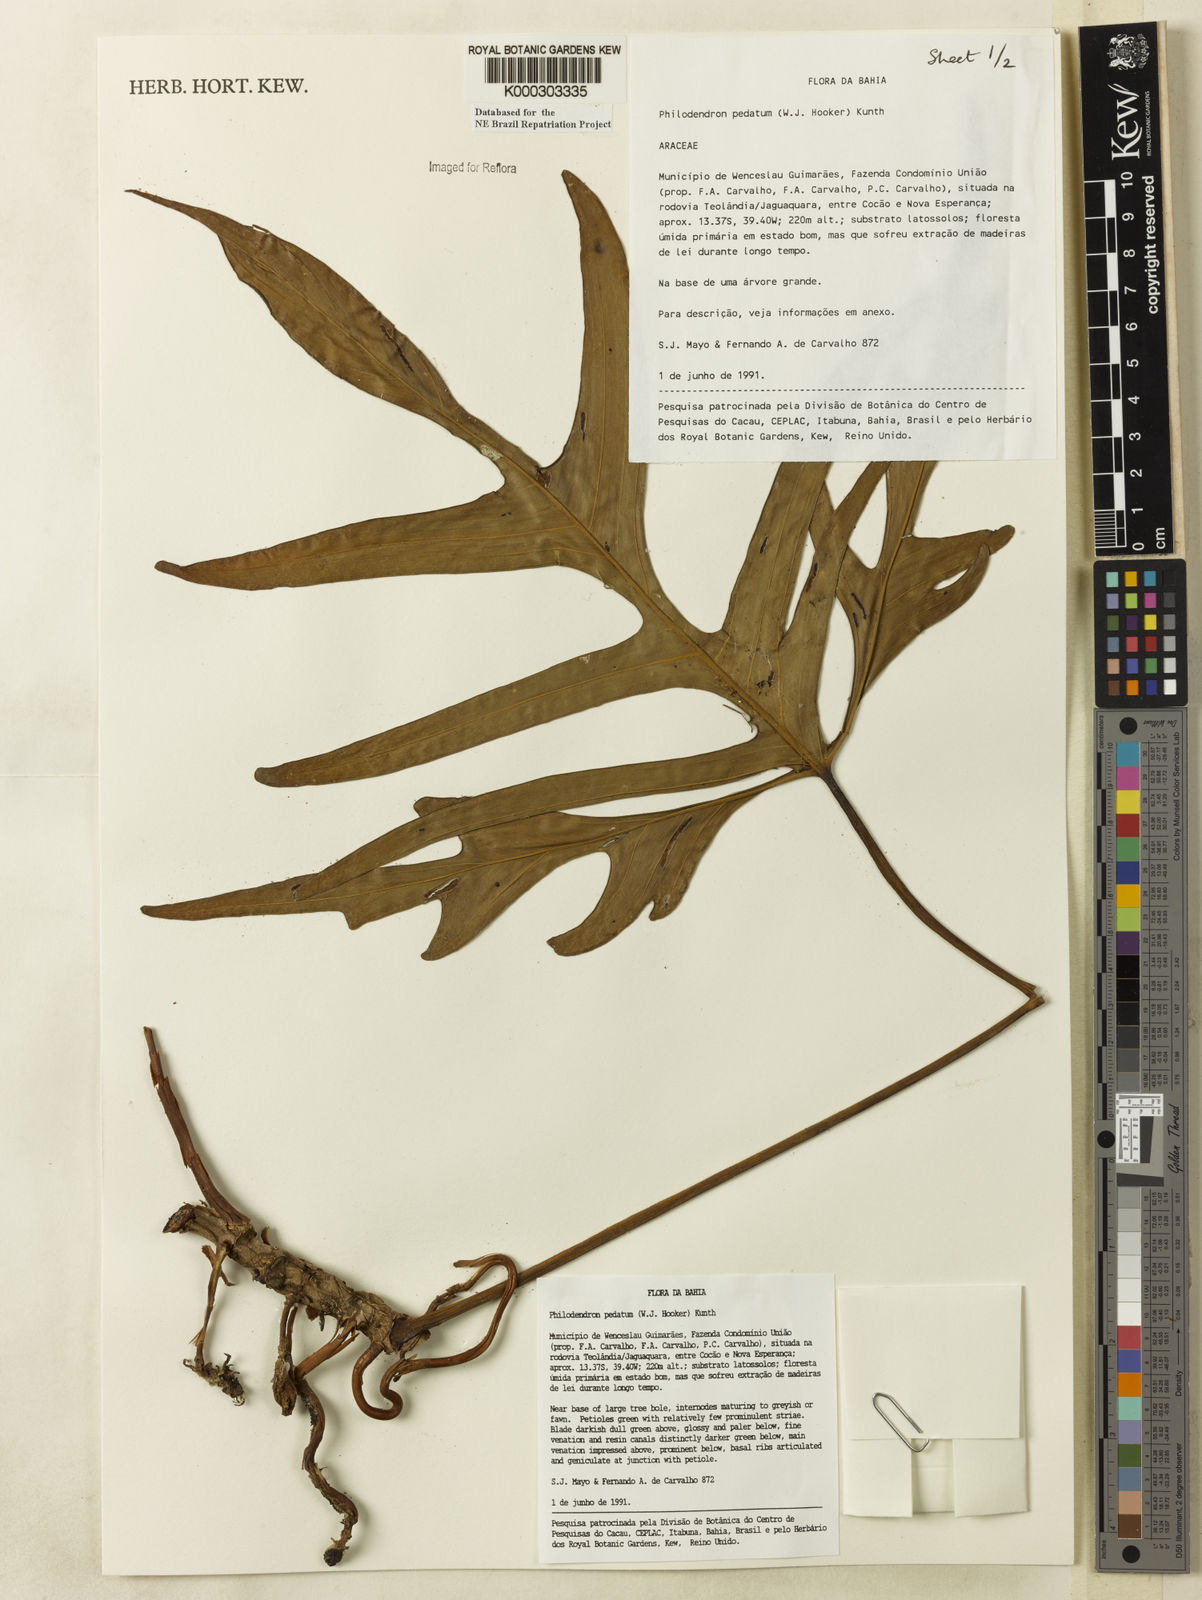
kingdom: Plantae
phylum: Tracheophyta
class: Liliopsida
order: Alismatales
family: Araceae
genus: Philodendron
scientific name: Philodendron pedatum
